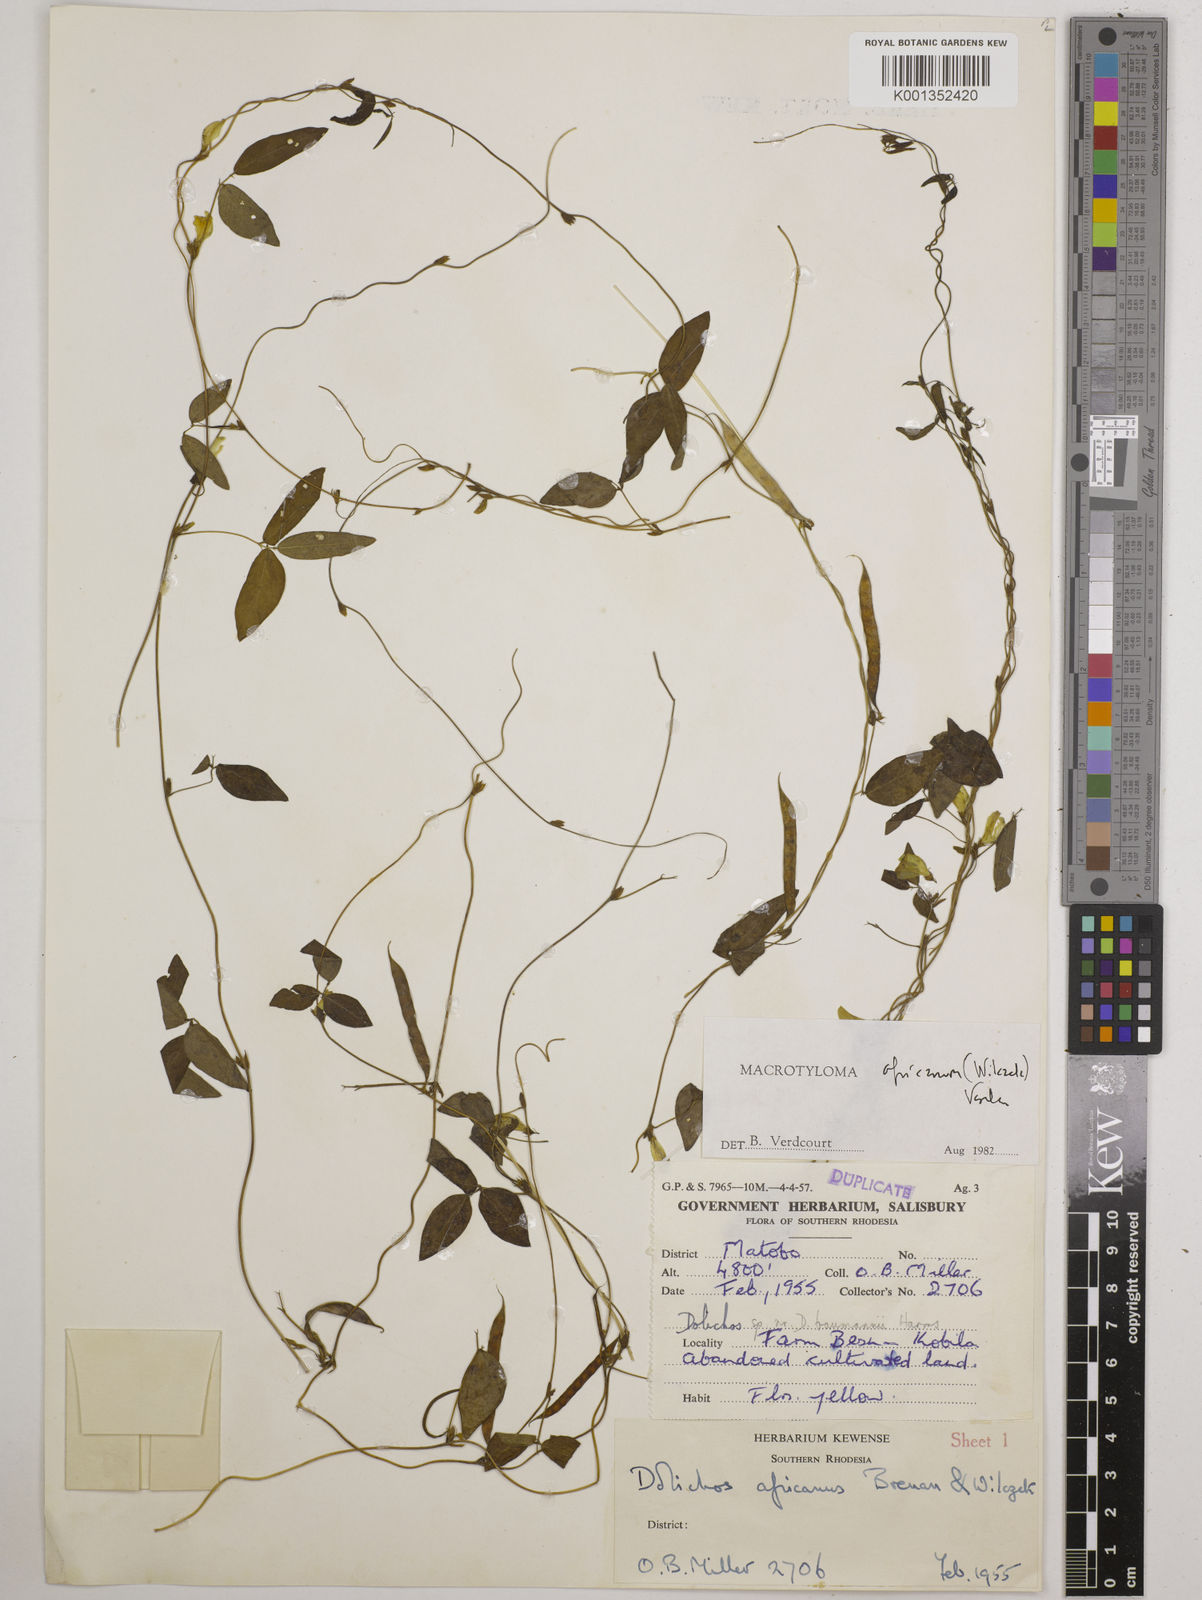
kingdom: Plantae
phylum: Tracheophyta
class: Magnoliopsida
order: Fabales
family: Fabaceae
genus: Macrotyloma
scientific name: Macrotyloma africanum
